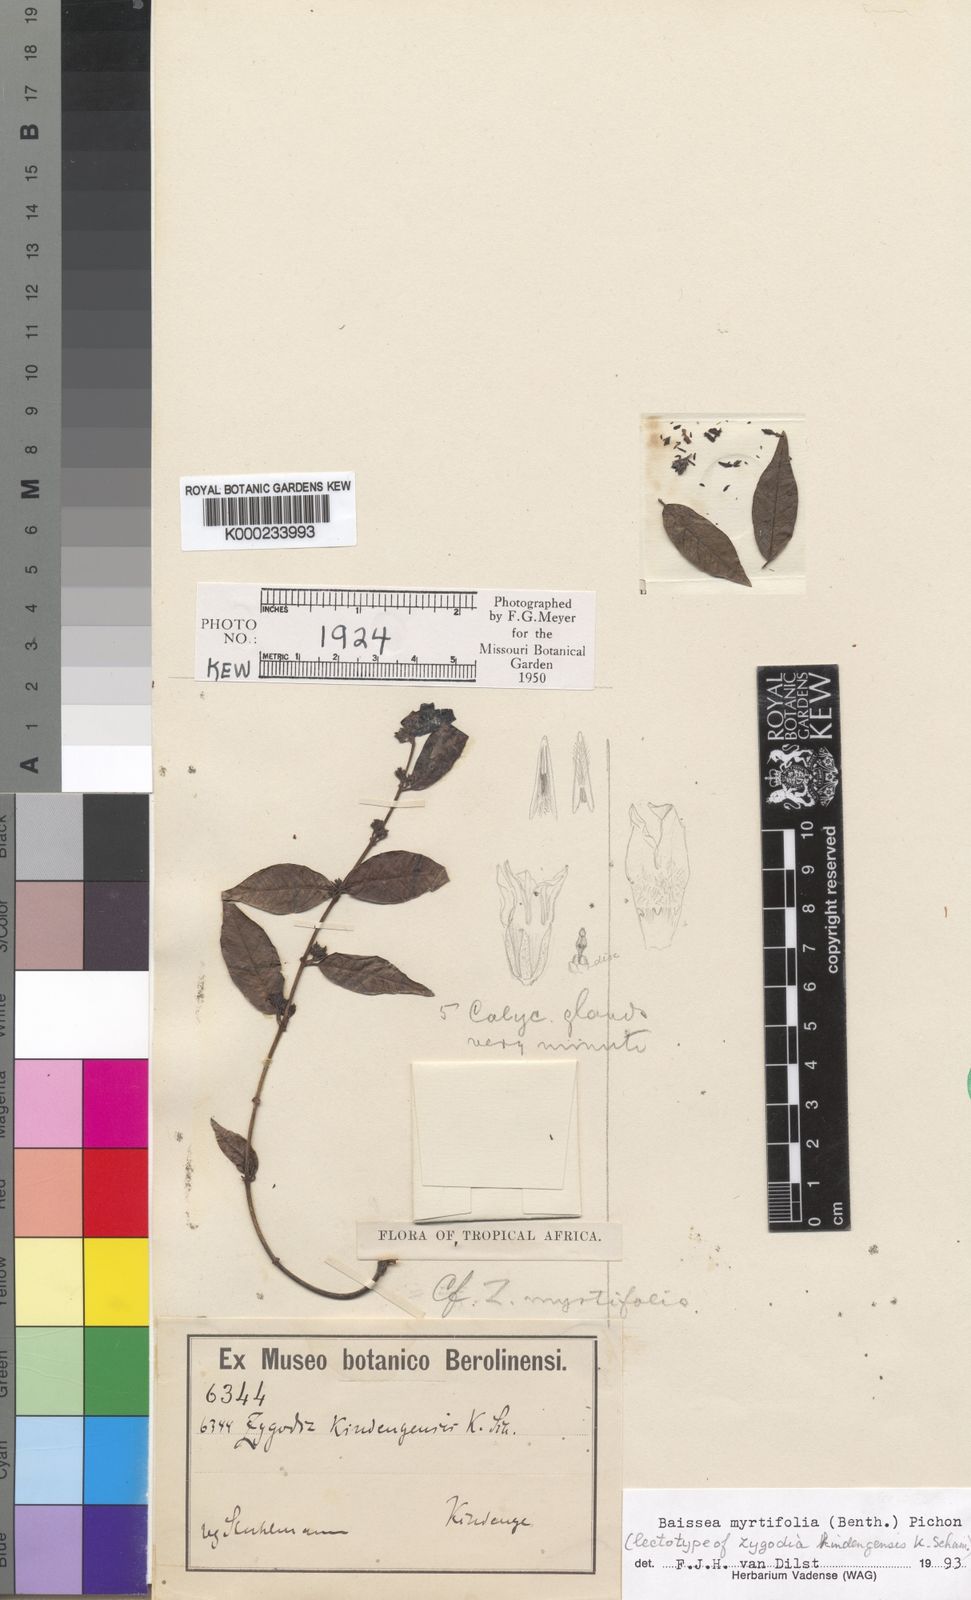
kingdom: Plantae
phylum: Tracheophyta
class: Magnoliopsida
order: Gentianales
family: Apocynaceae
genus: Baissea
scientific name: Baissea myrtifolia
